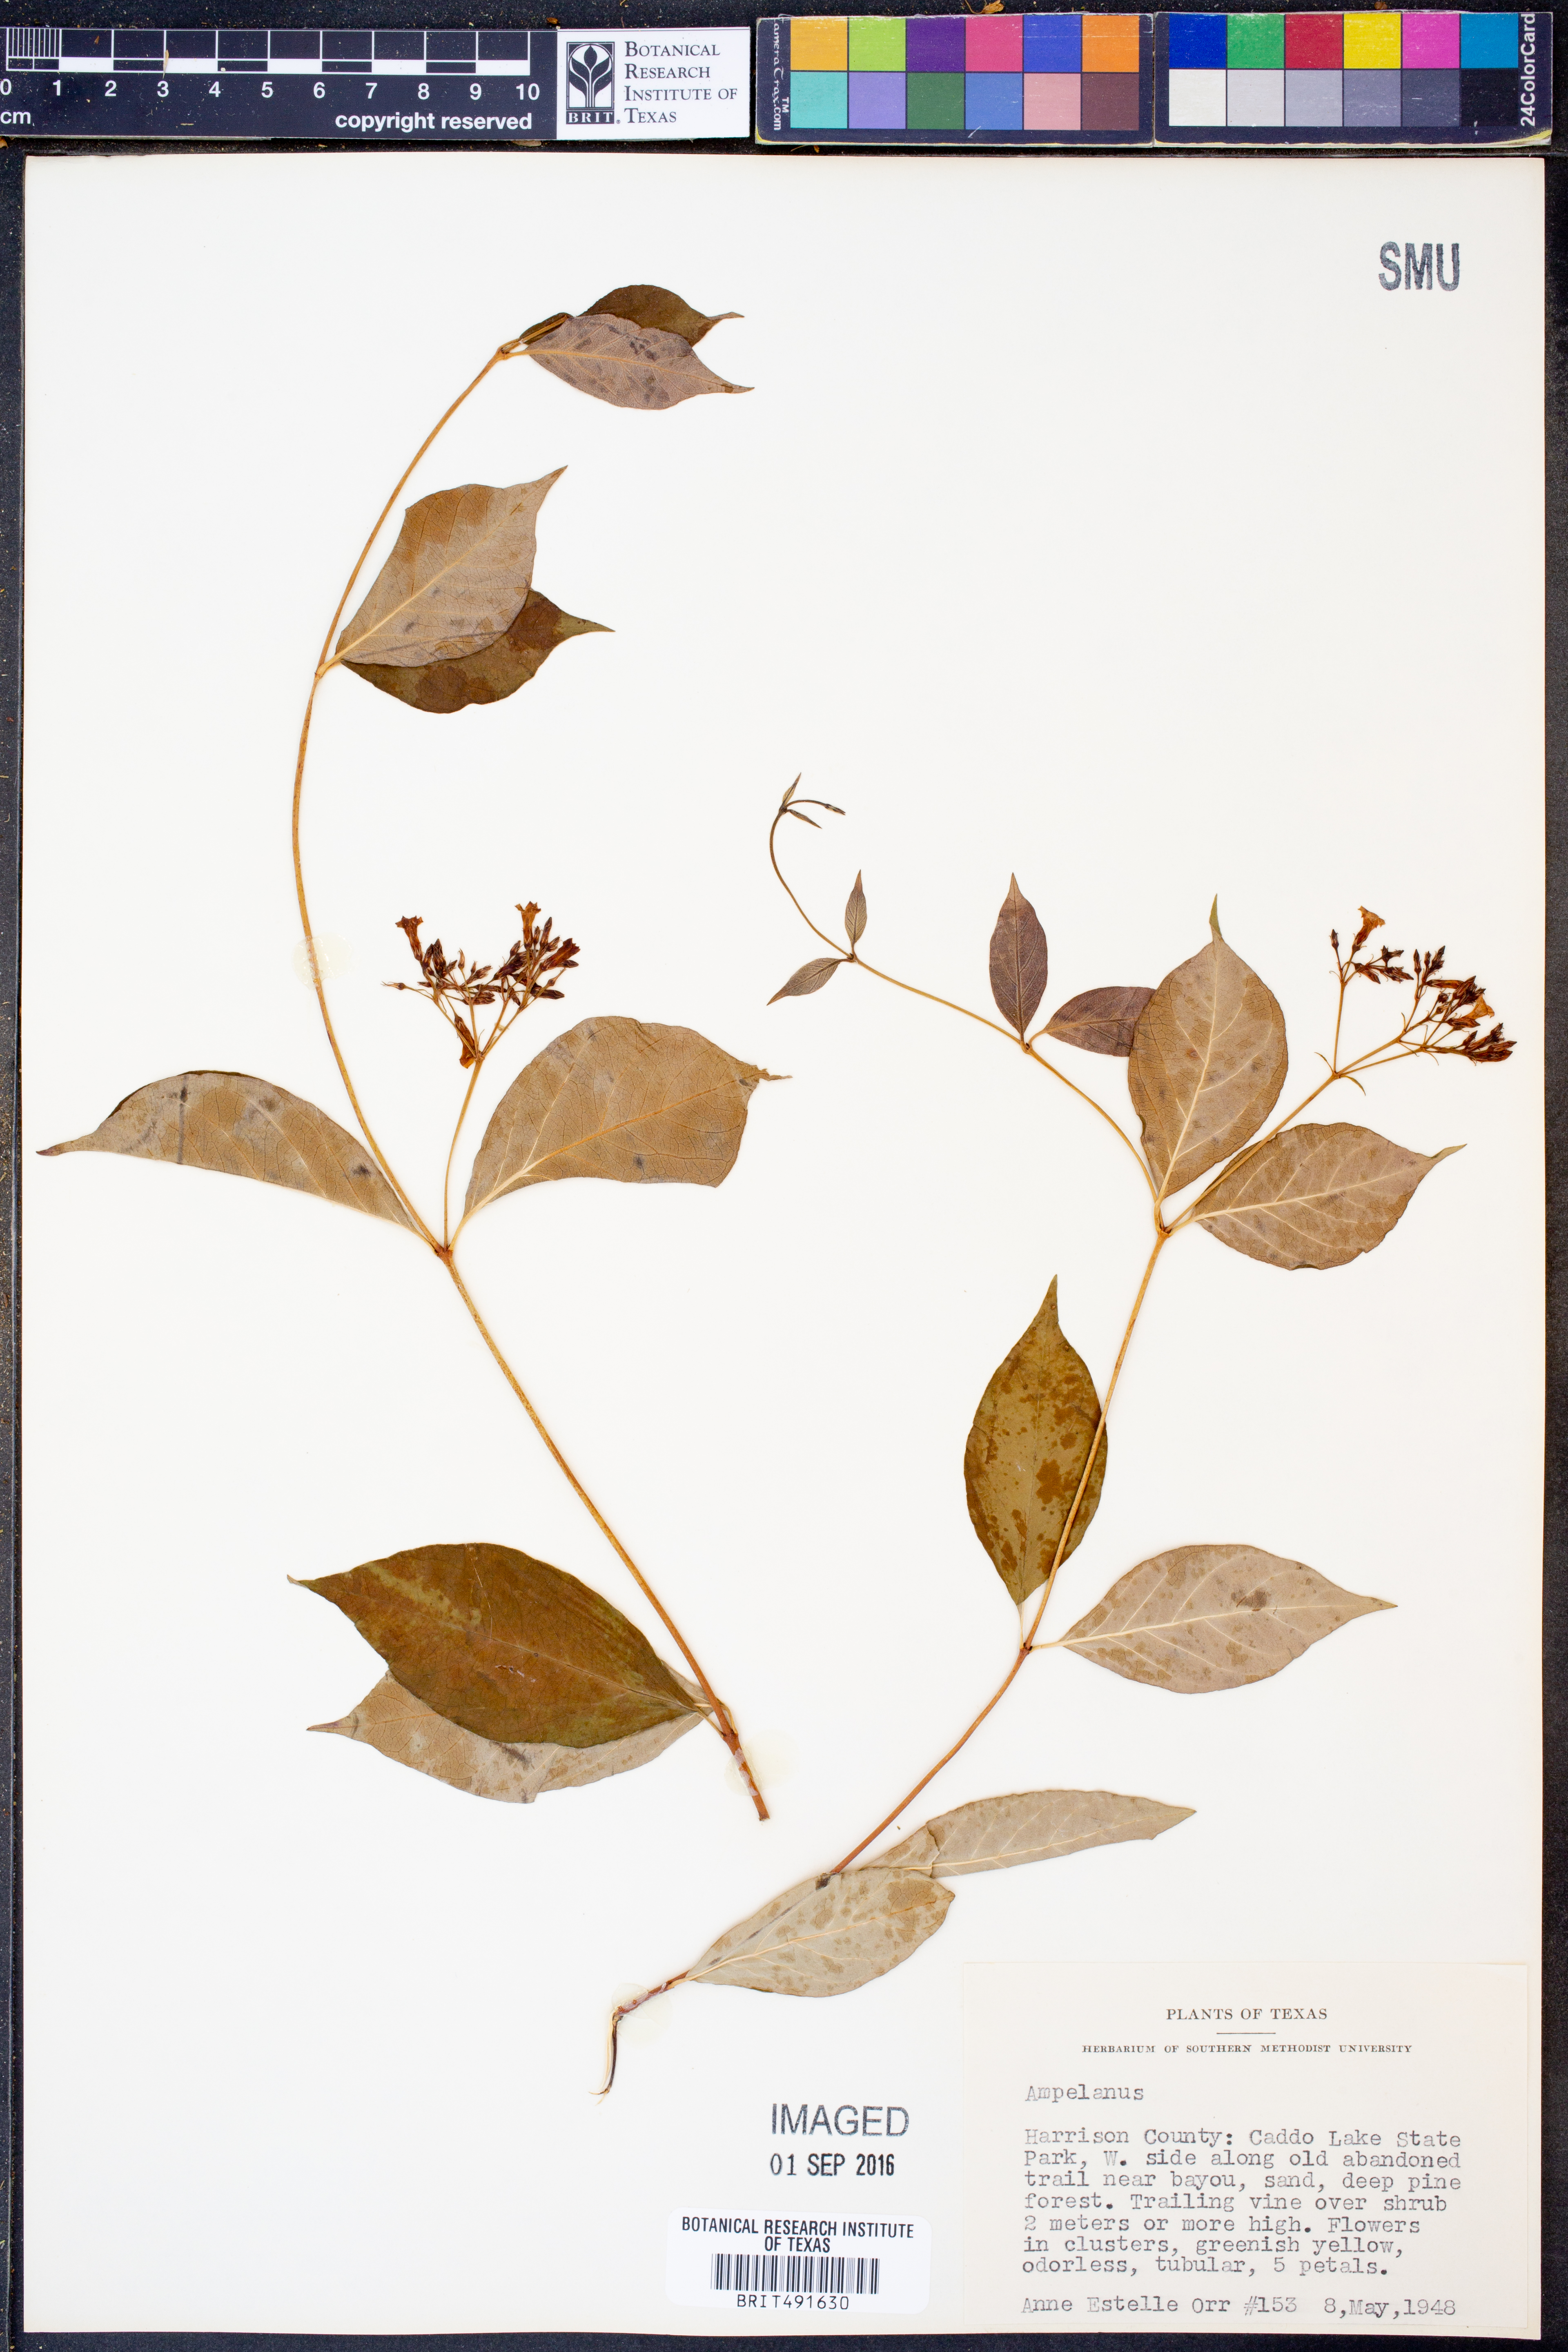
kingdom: Plantae
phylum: Tracheophyta
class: Magnoliopsida
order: Gentianales
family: Apocynaceae
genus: Cynanchum
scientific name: Cynanchum
